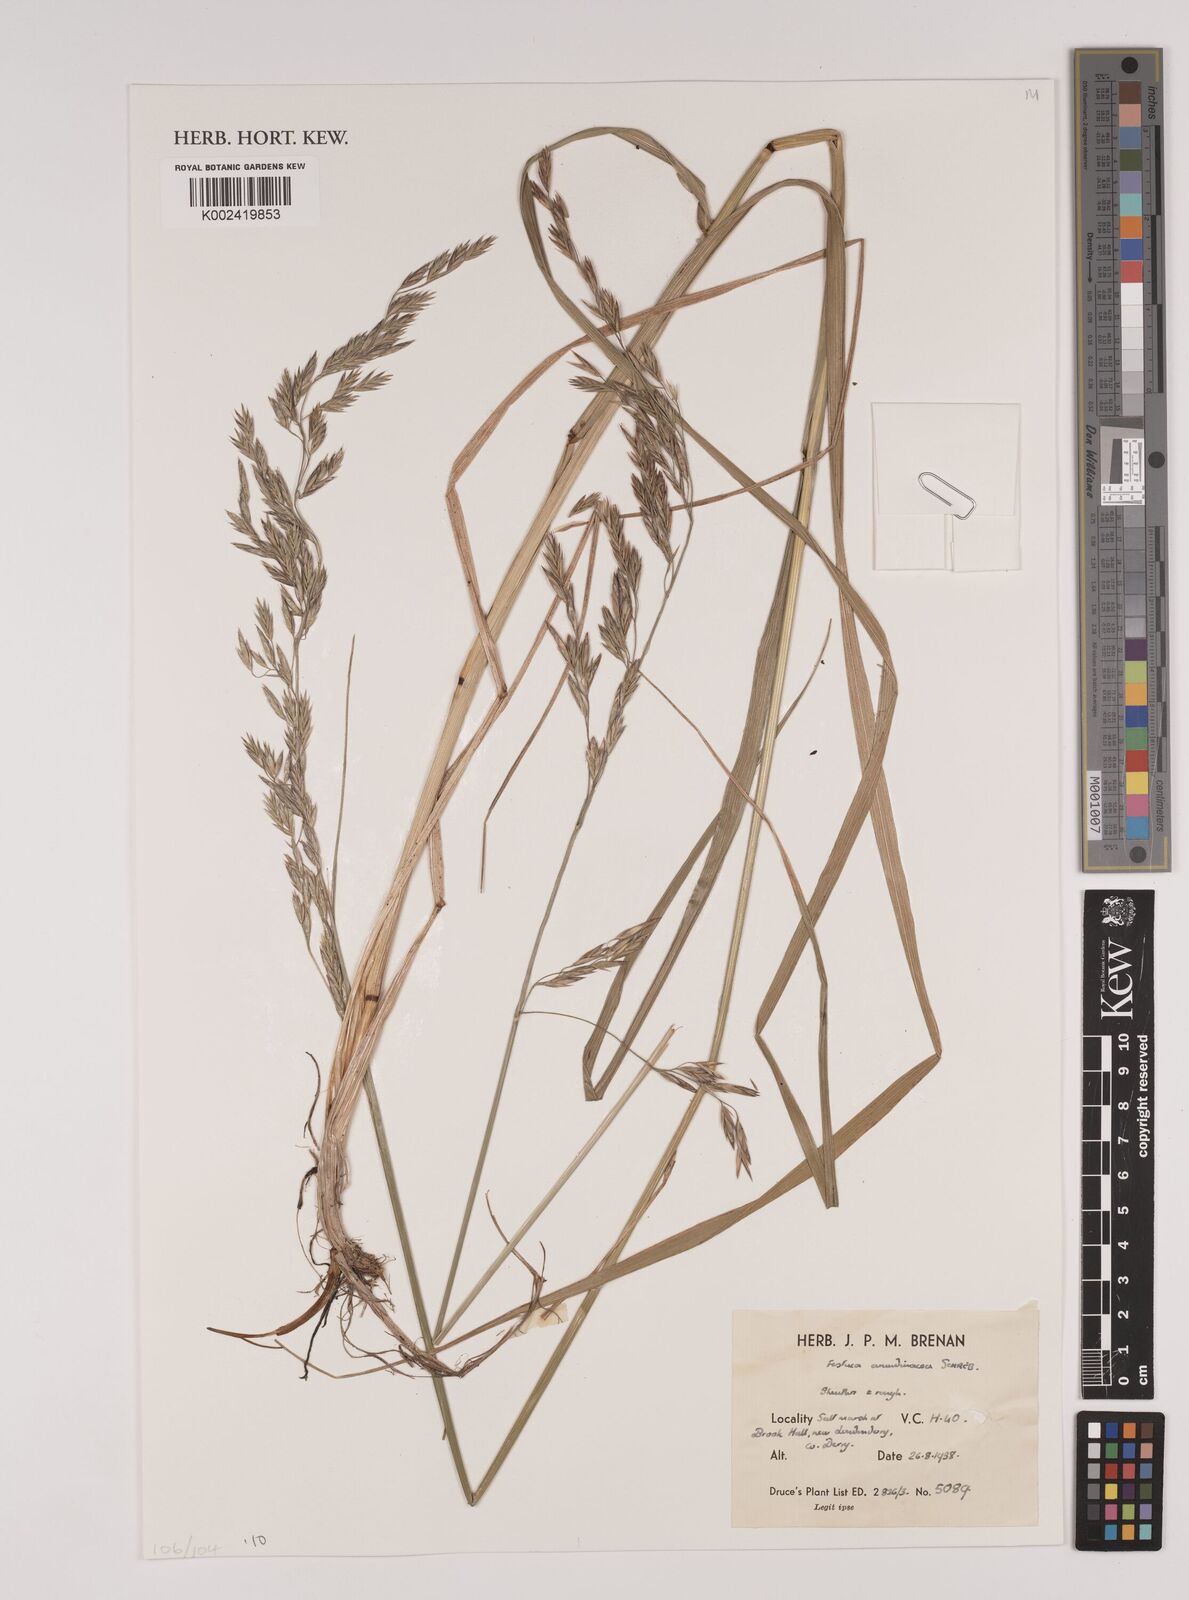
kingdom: Plantae
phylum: Tracheophyta
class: Liliopsida
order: Poales
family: Poaceae
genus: Festuca
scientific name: Festuca rubra
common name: Red fescue
